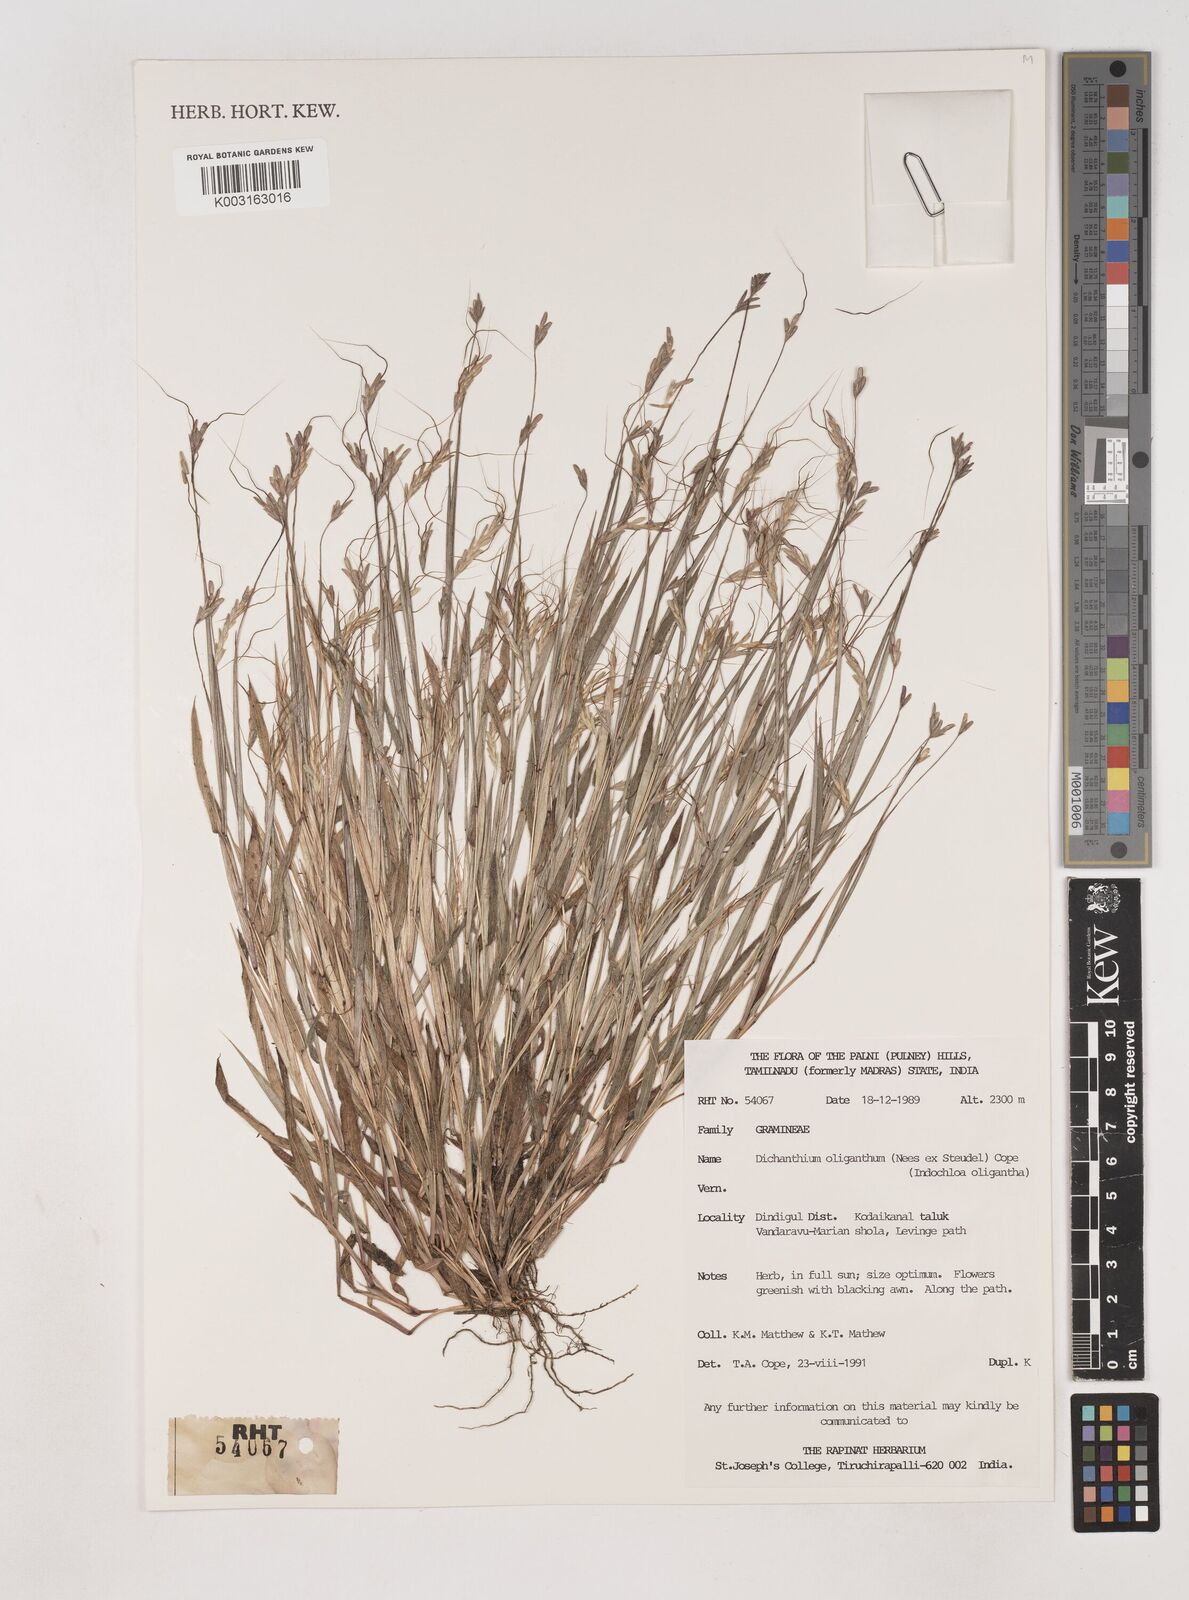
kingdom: Plantae
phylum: Tracheophyta
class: Liliopsida
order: Poales
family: Poaceae
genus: Euclasta
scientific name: Euclasta oligantha
